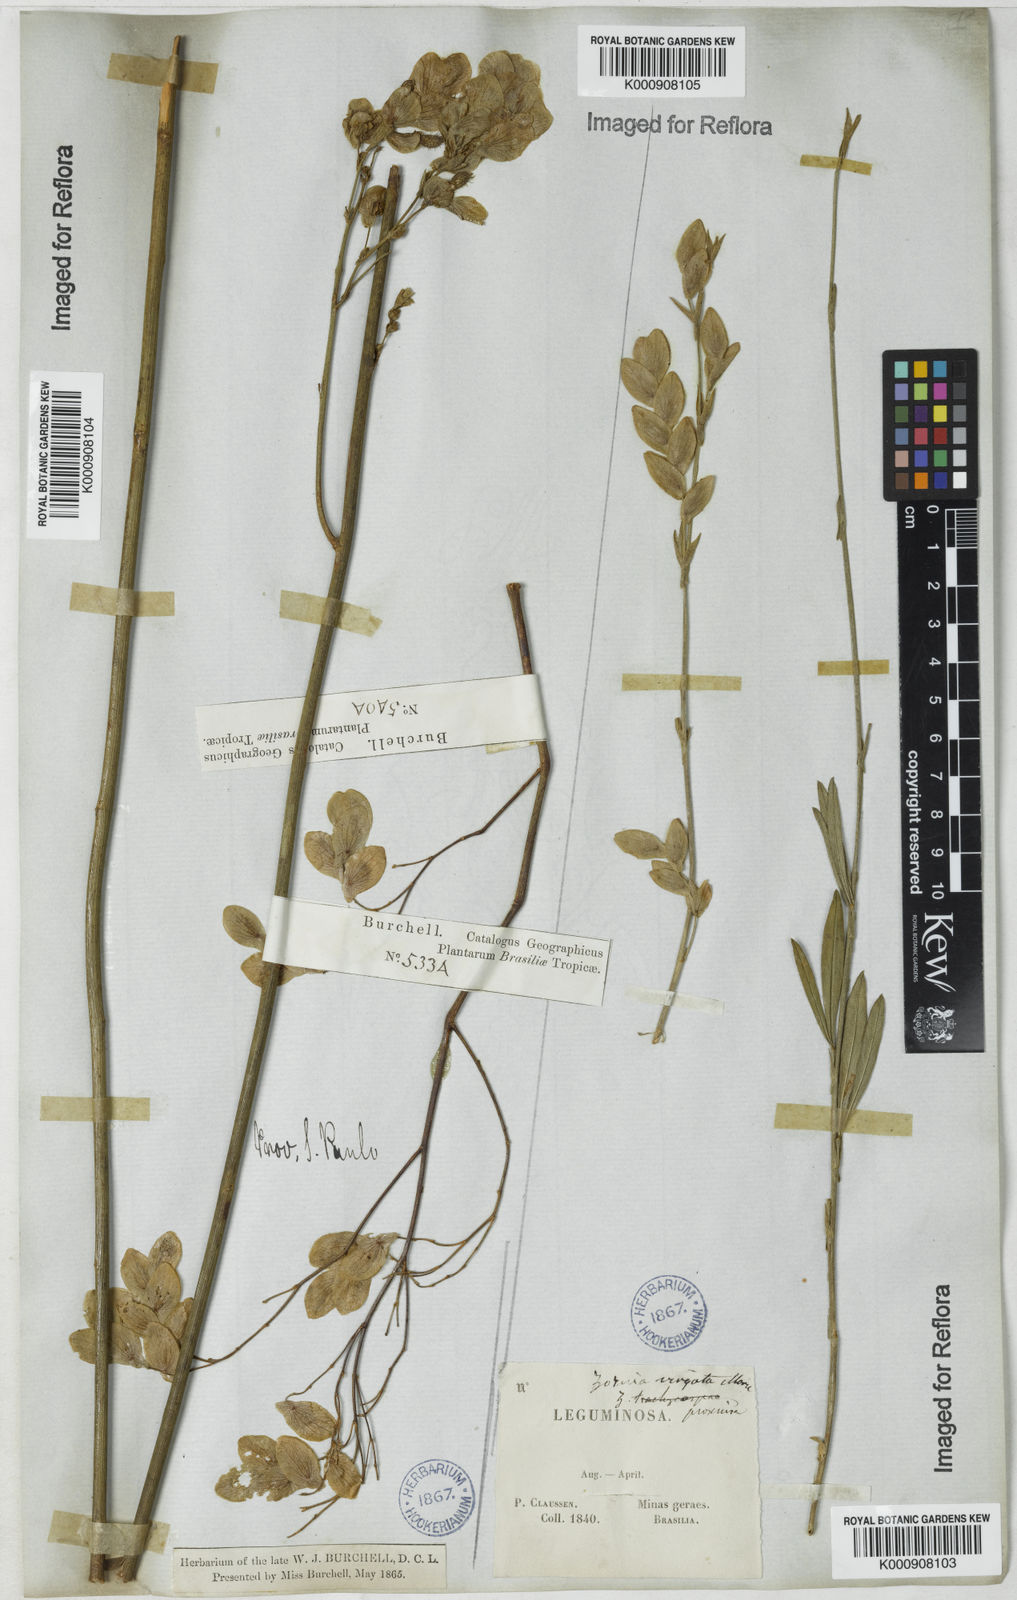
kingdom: Plantae
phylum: Tracheophyta
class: Magnoliopsida
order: Fabales
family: Fabaceae
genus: Zornia
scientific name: Zornia virgata
